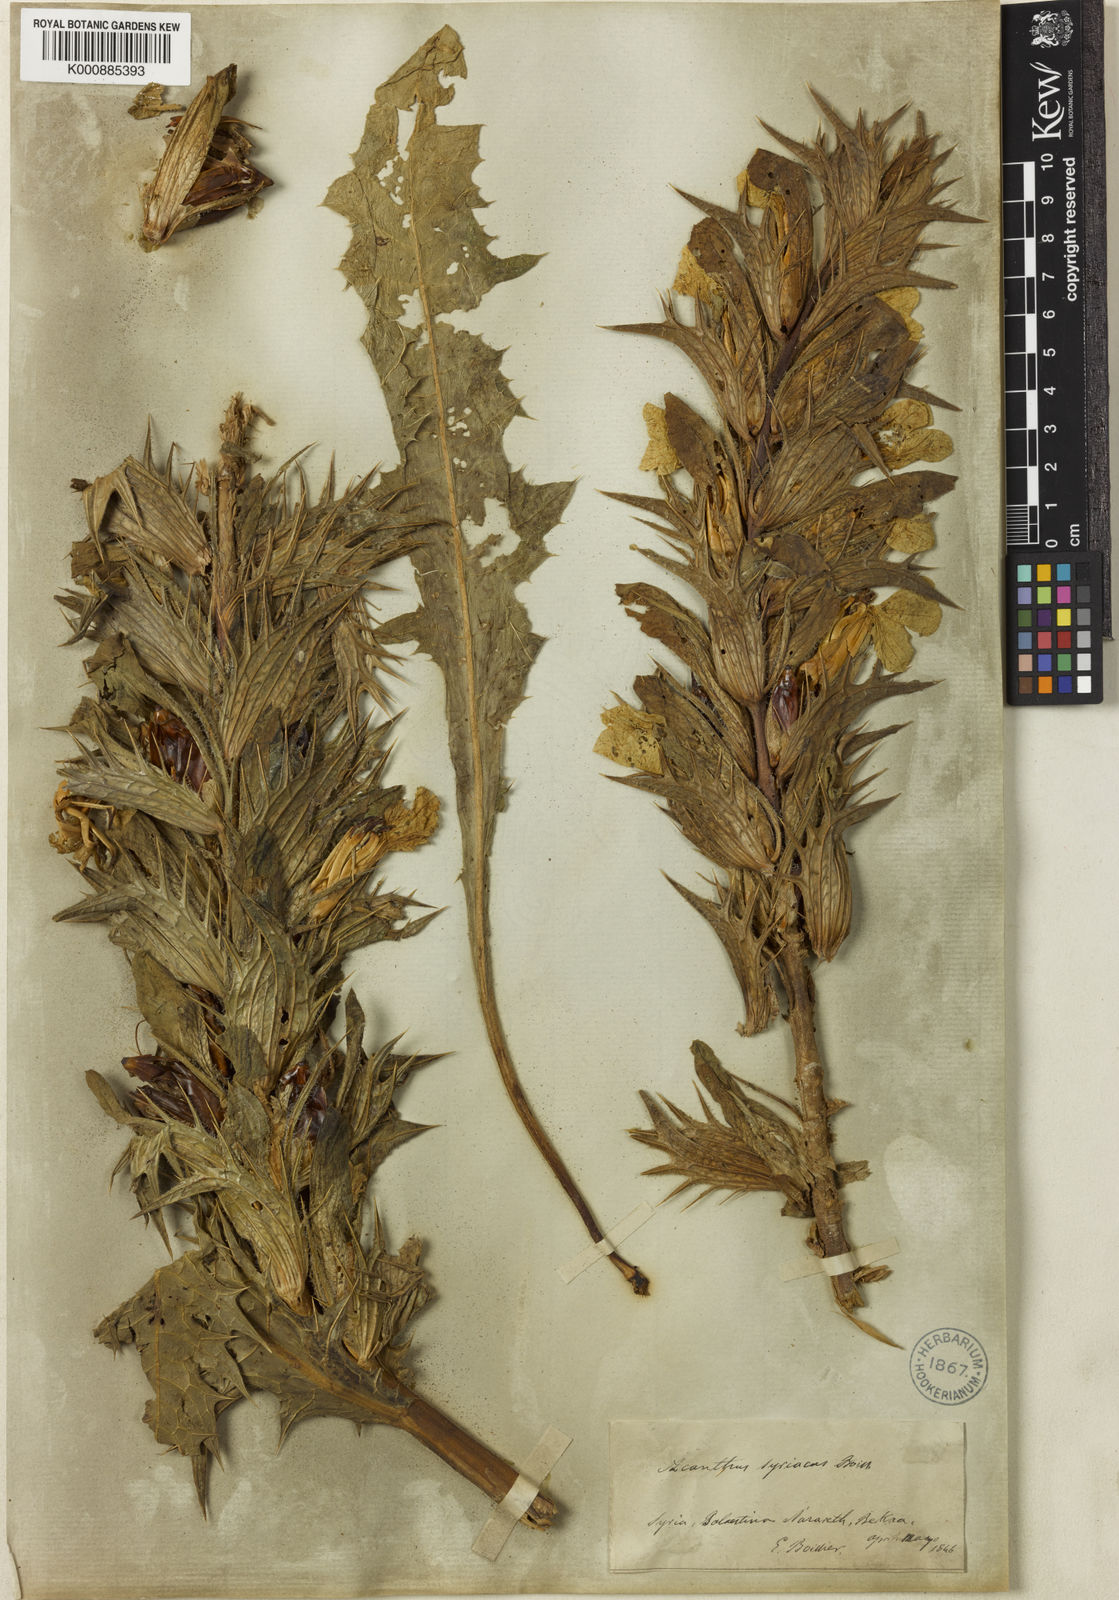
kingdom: Plantae
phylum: Tracheophyta
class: Magnoliopsida
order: Lamiales
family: Acanthaceae
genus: Acanthus
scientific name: Acanthus hirsutus
